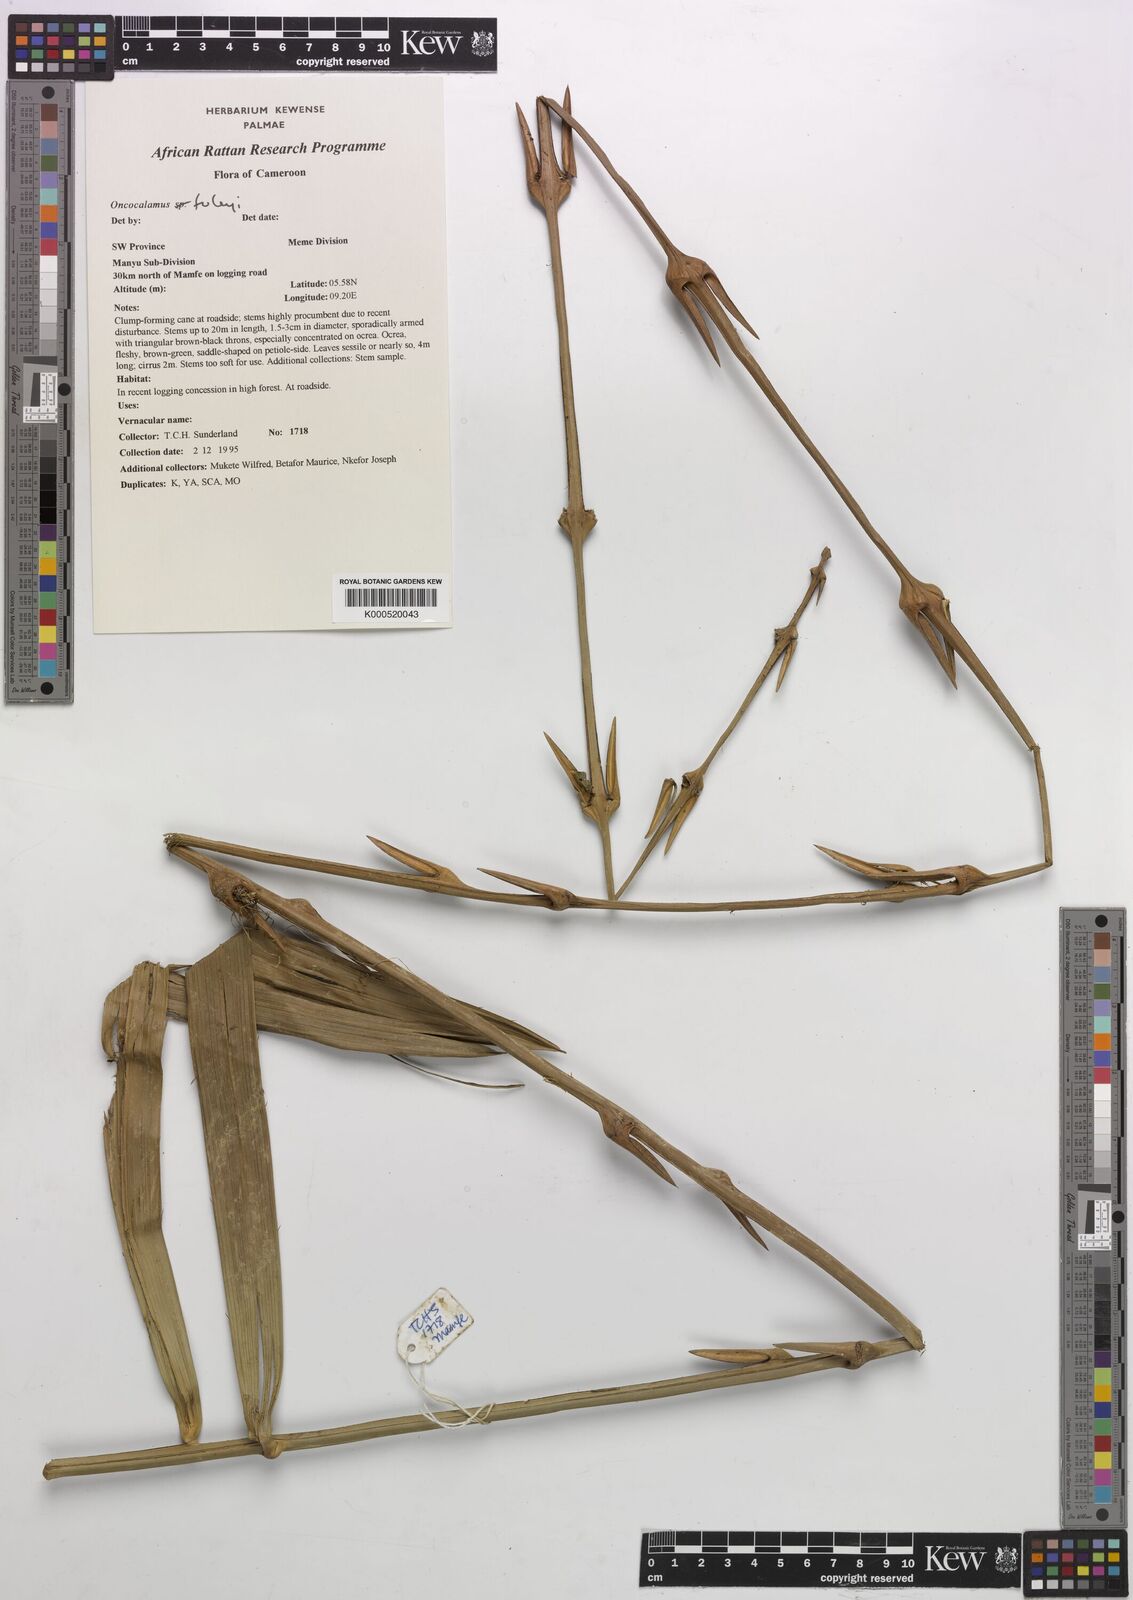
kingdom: Plantae
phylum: Tracheophyta
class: Liliopsida
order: Arecales
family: Arecaceae
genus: Oncocalamus
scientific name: Oncocalamus tuleyi
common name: Rattan
